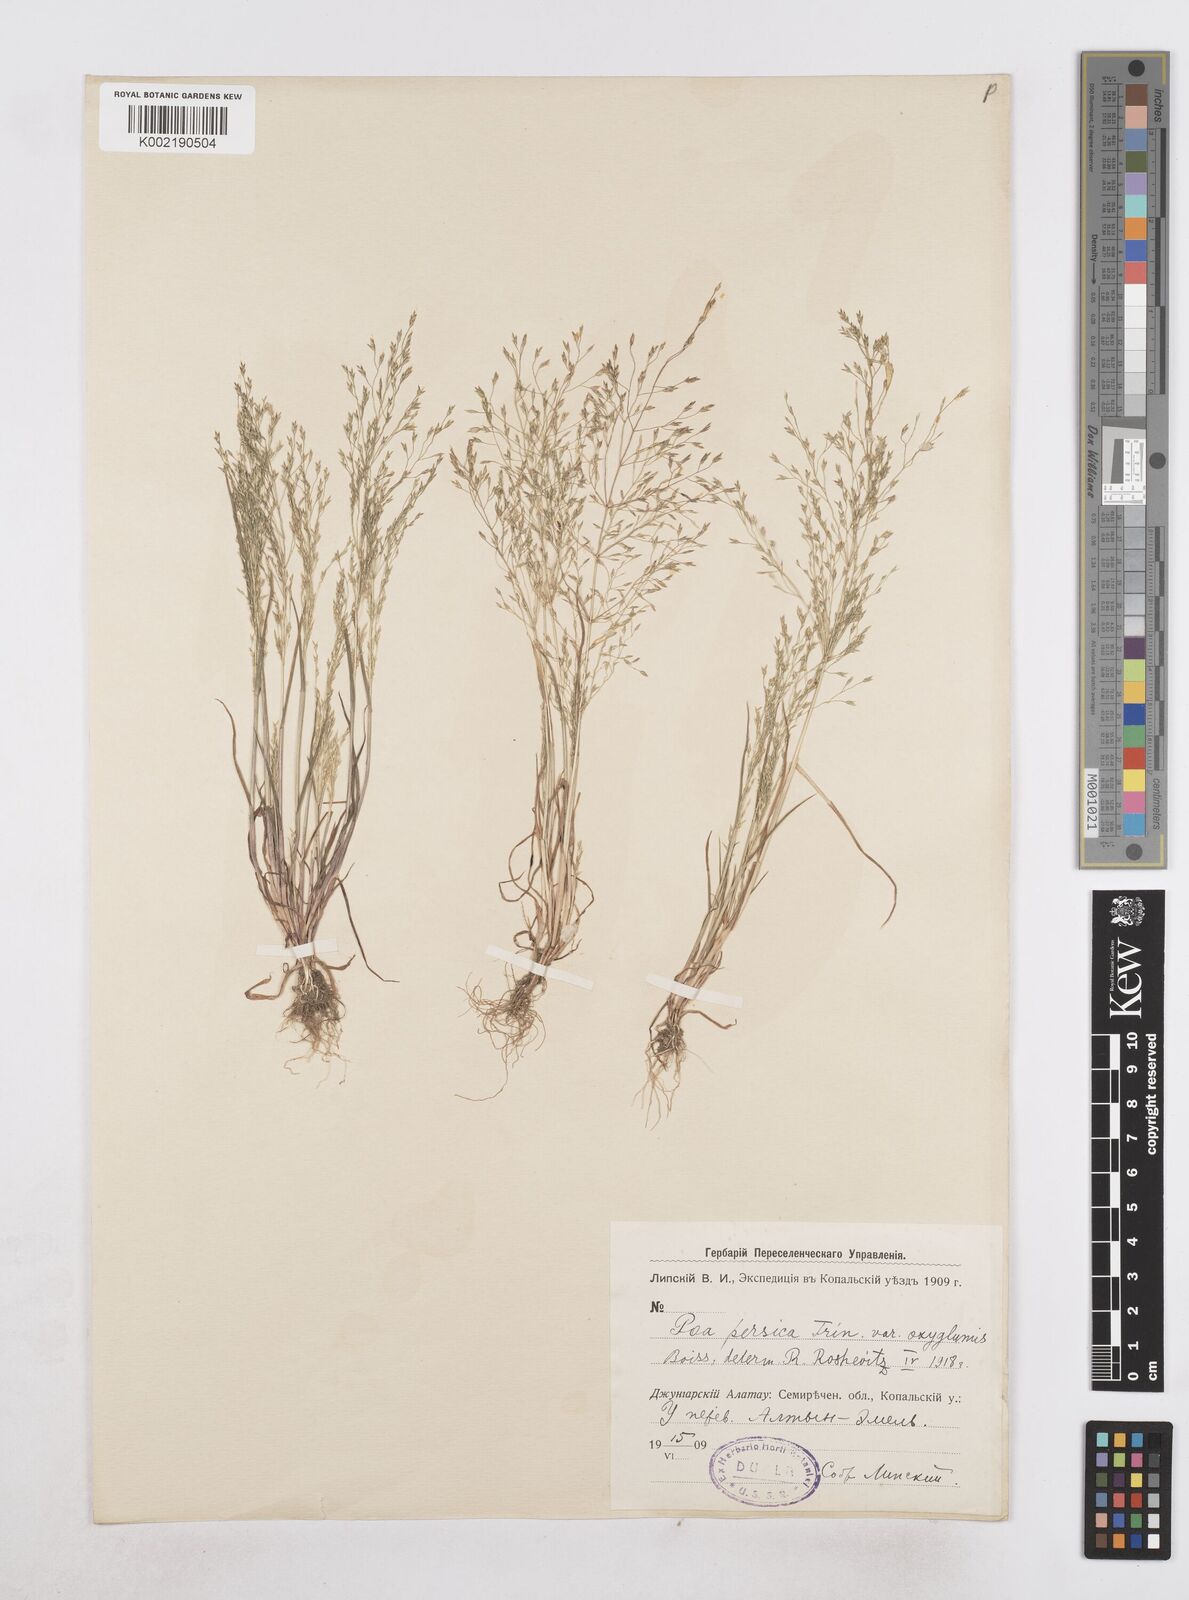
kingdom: Plantae
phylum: Tracheophyta
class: Liliopsida
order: Poales
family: Poaceae
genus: Poa
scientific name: Poa diaphora
